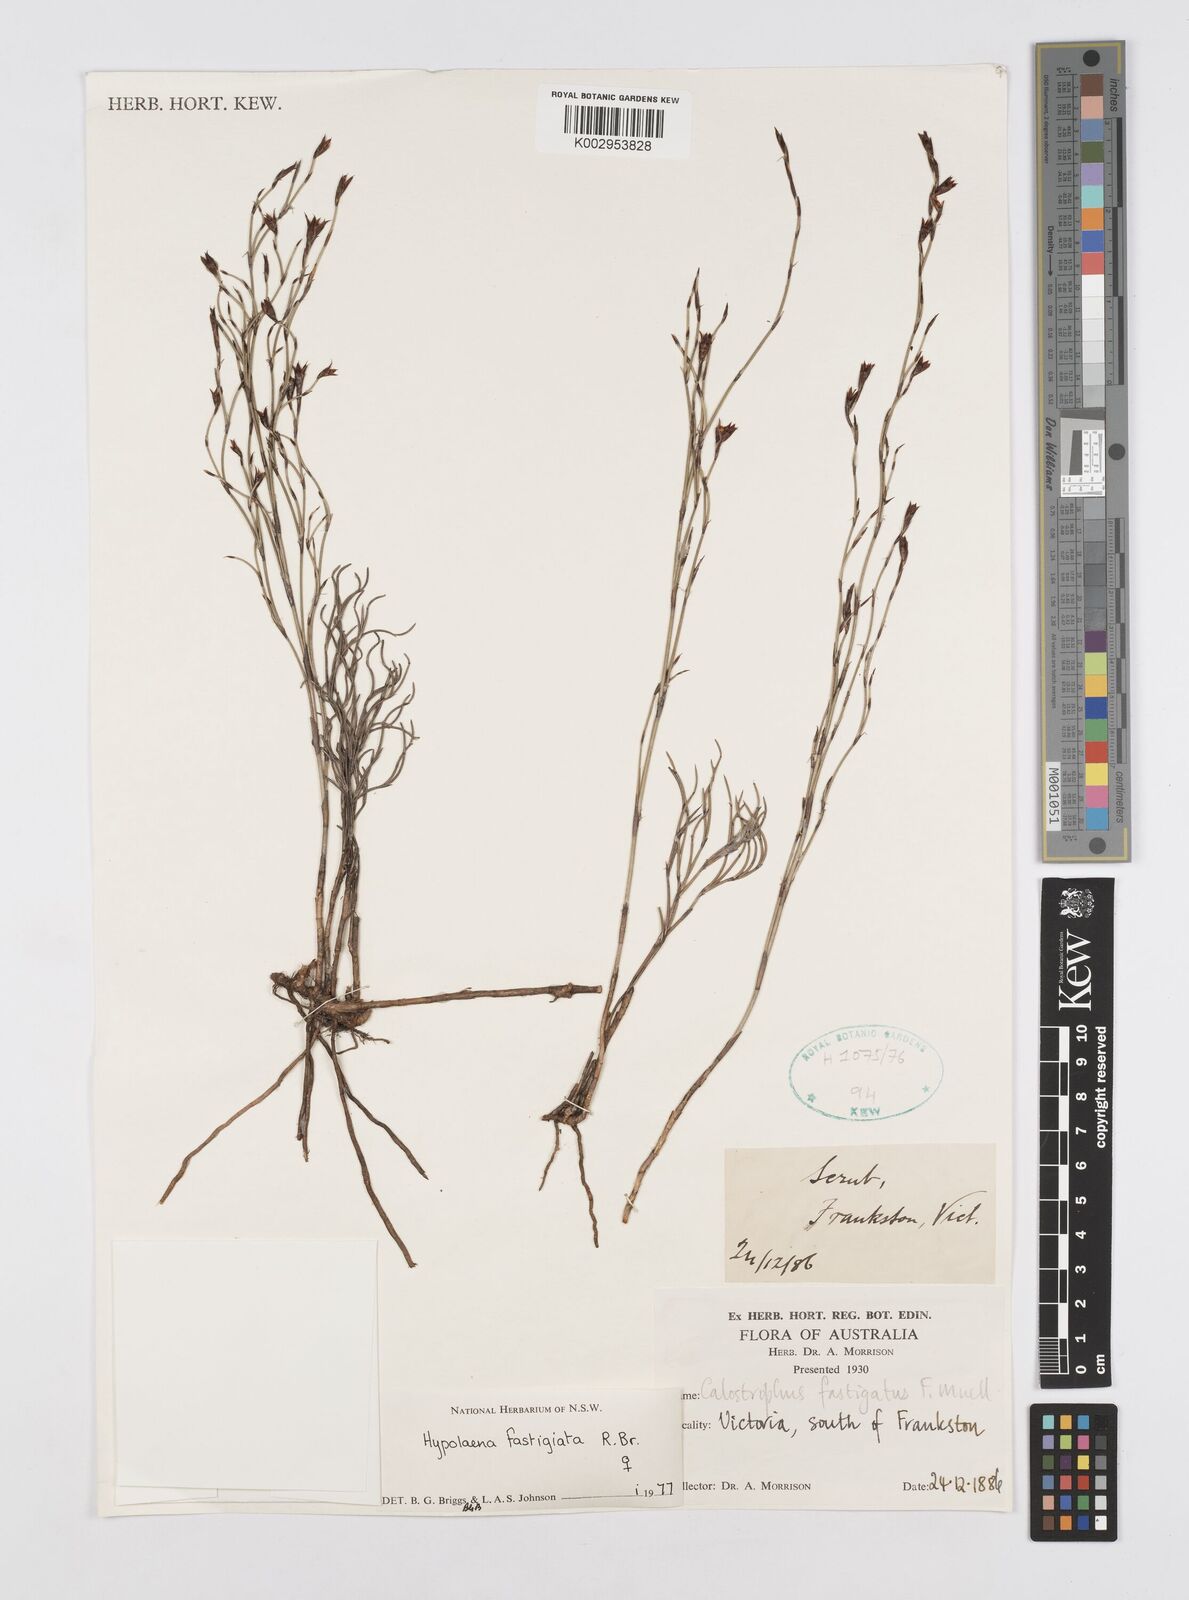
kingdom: Plantae
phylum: Tracheophyta
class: Liliopsida
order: Poales
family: Restionaceae
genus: Hypolaena
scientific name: Hypolaena fastigiata
